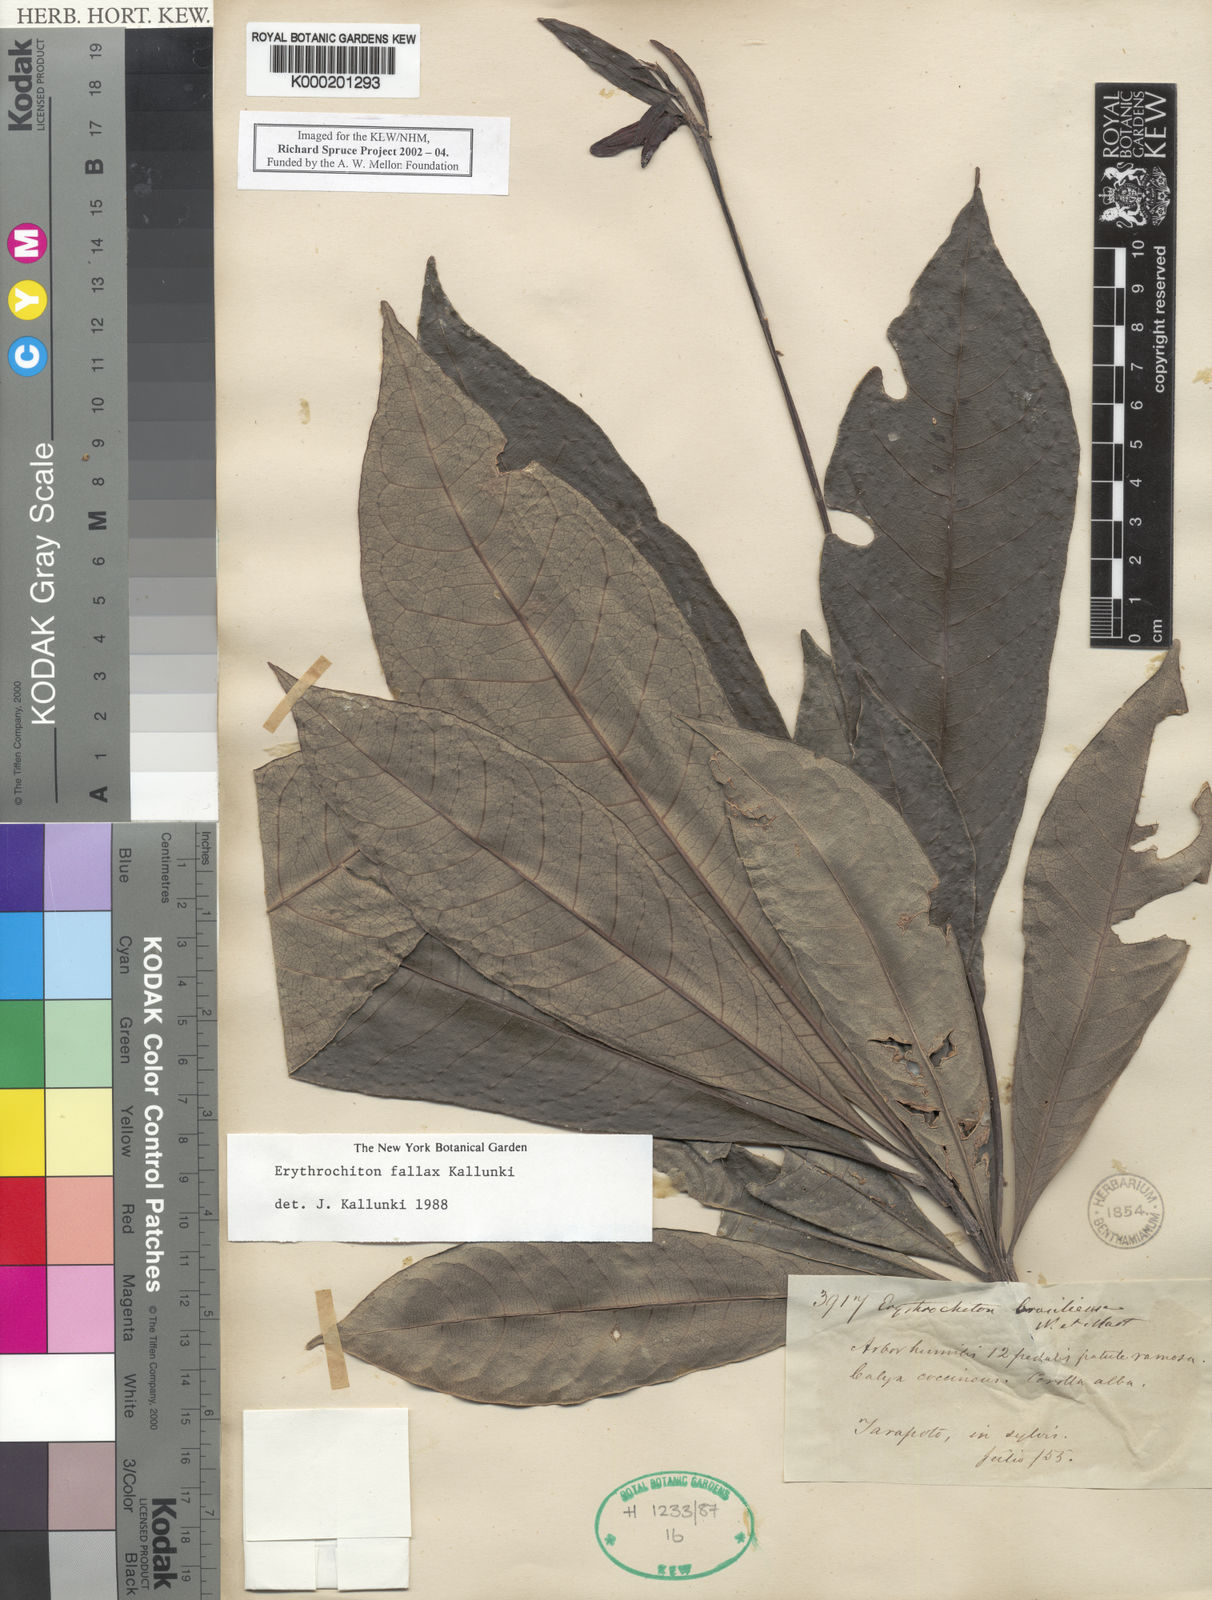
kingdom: Plantae
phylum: Tracheophyta
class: Magnoliopsida
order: Sapindales
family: Rutaceae
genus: Erythrochiton
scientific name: Erythrochiton fallax
